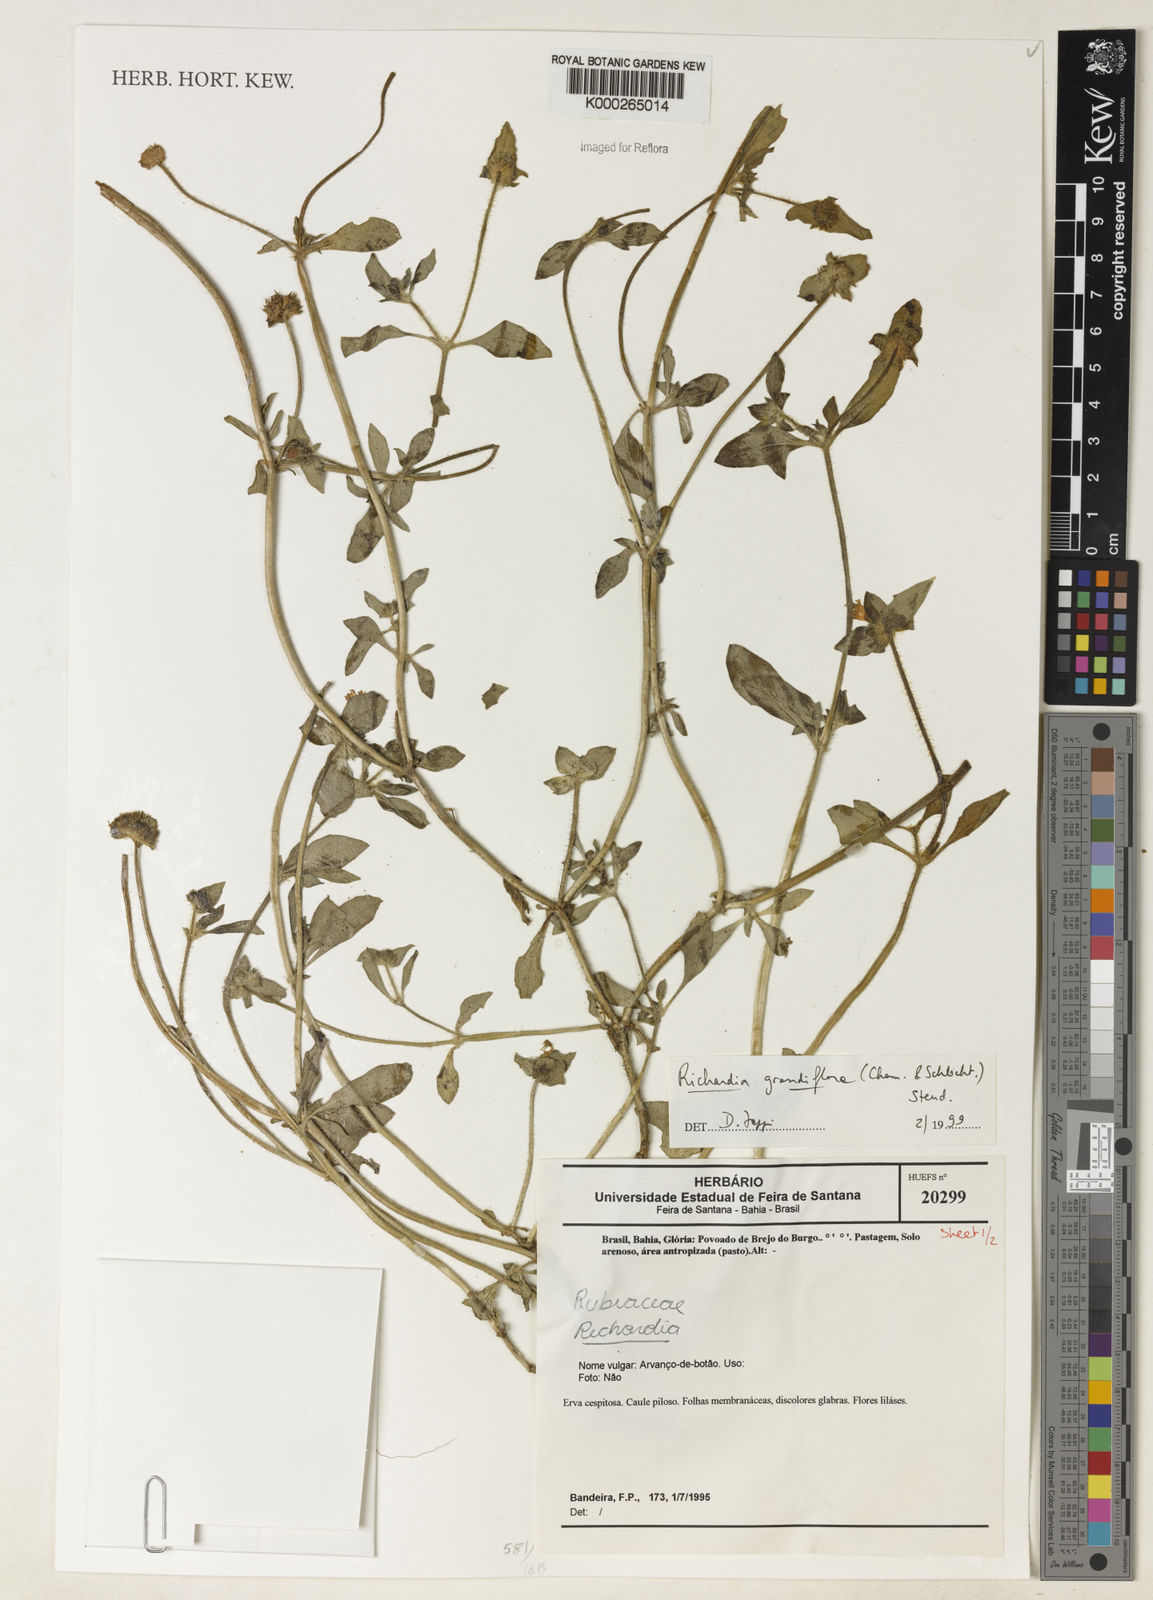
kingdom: Plantae
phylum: Tracheophyta
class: Magnoliopsida
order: Gentianales
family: Rubiaceae
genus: Richardia
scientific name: Richardia grandiflora
